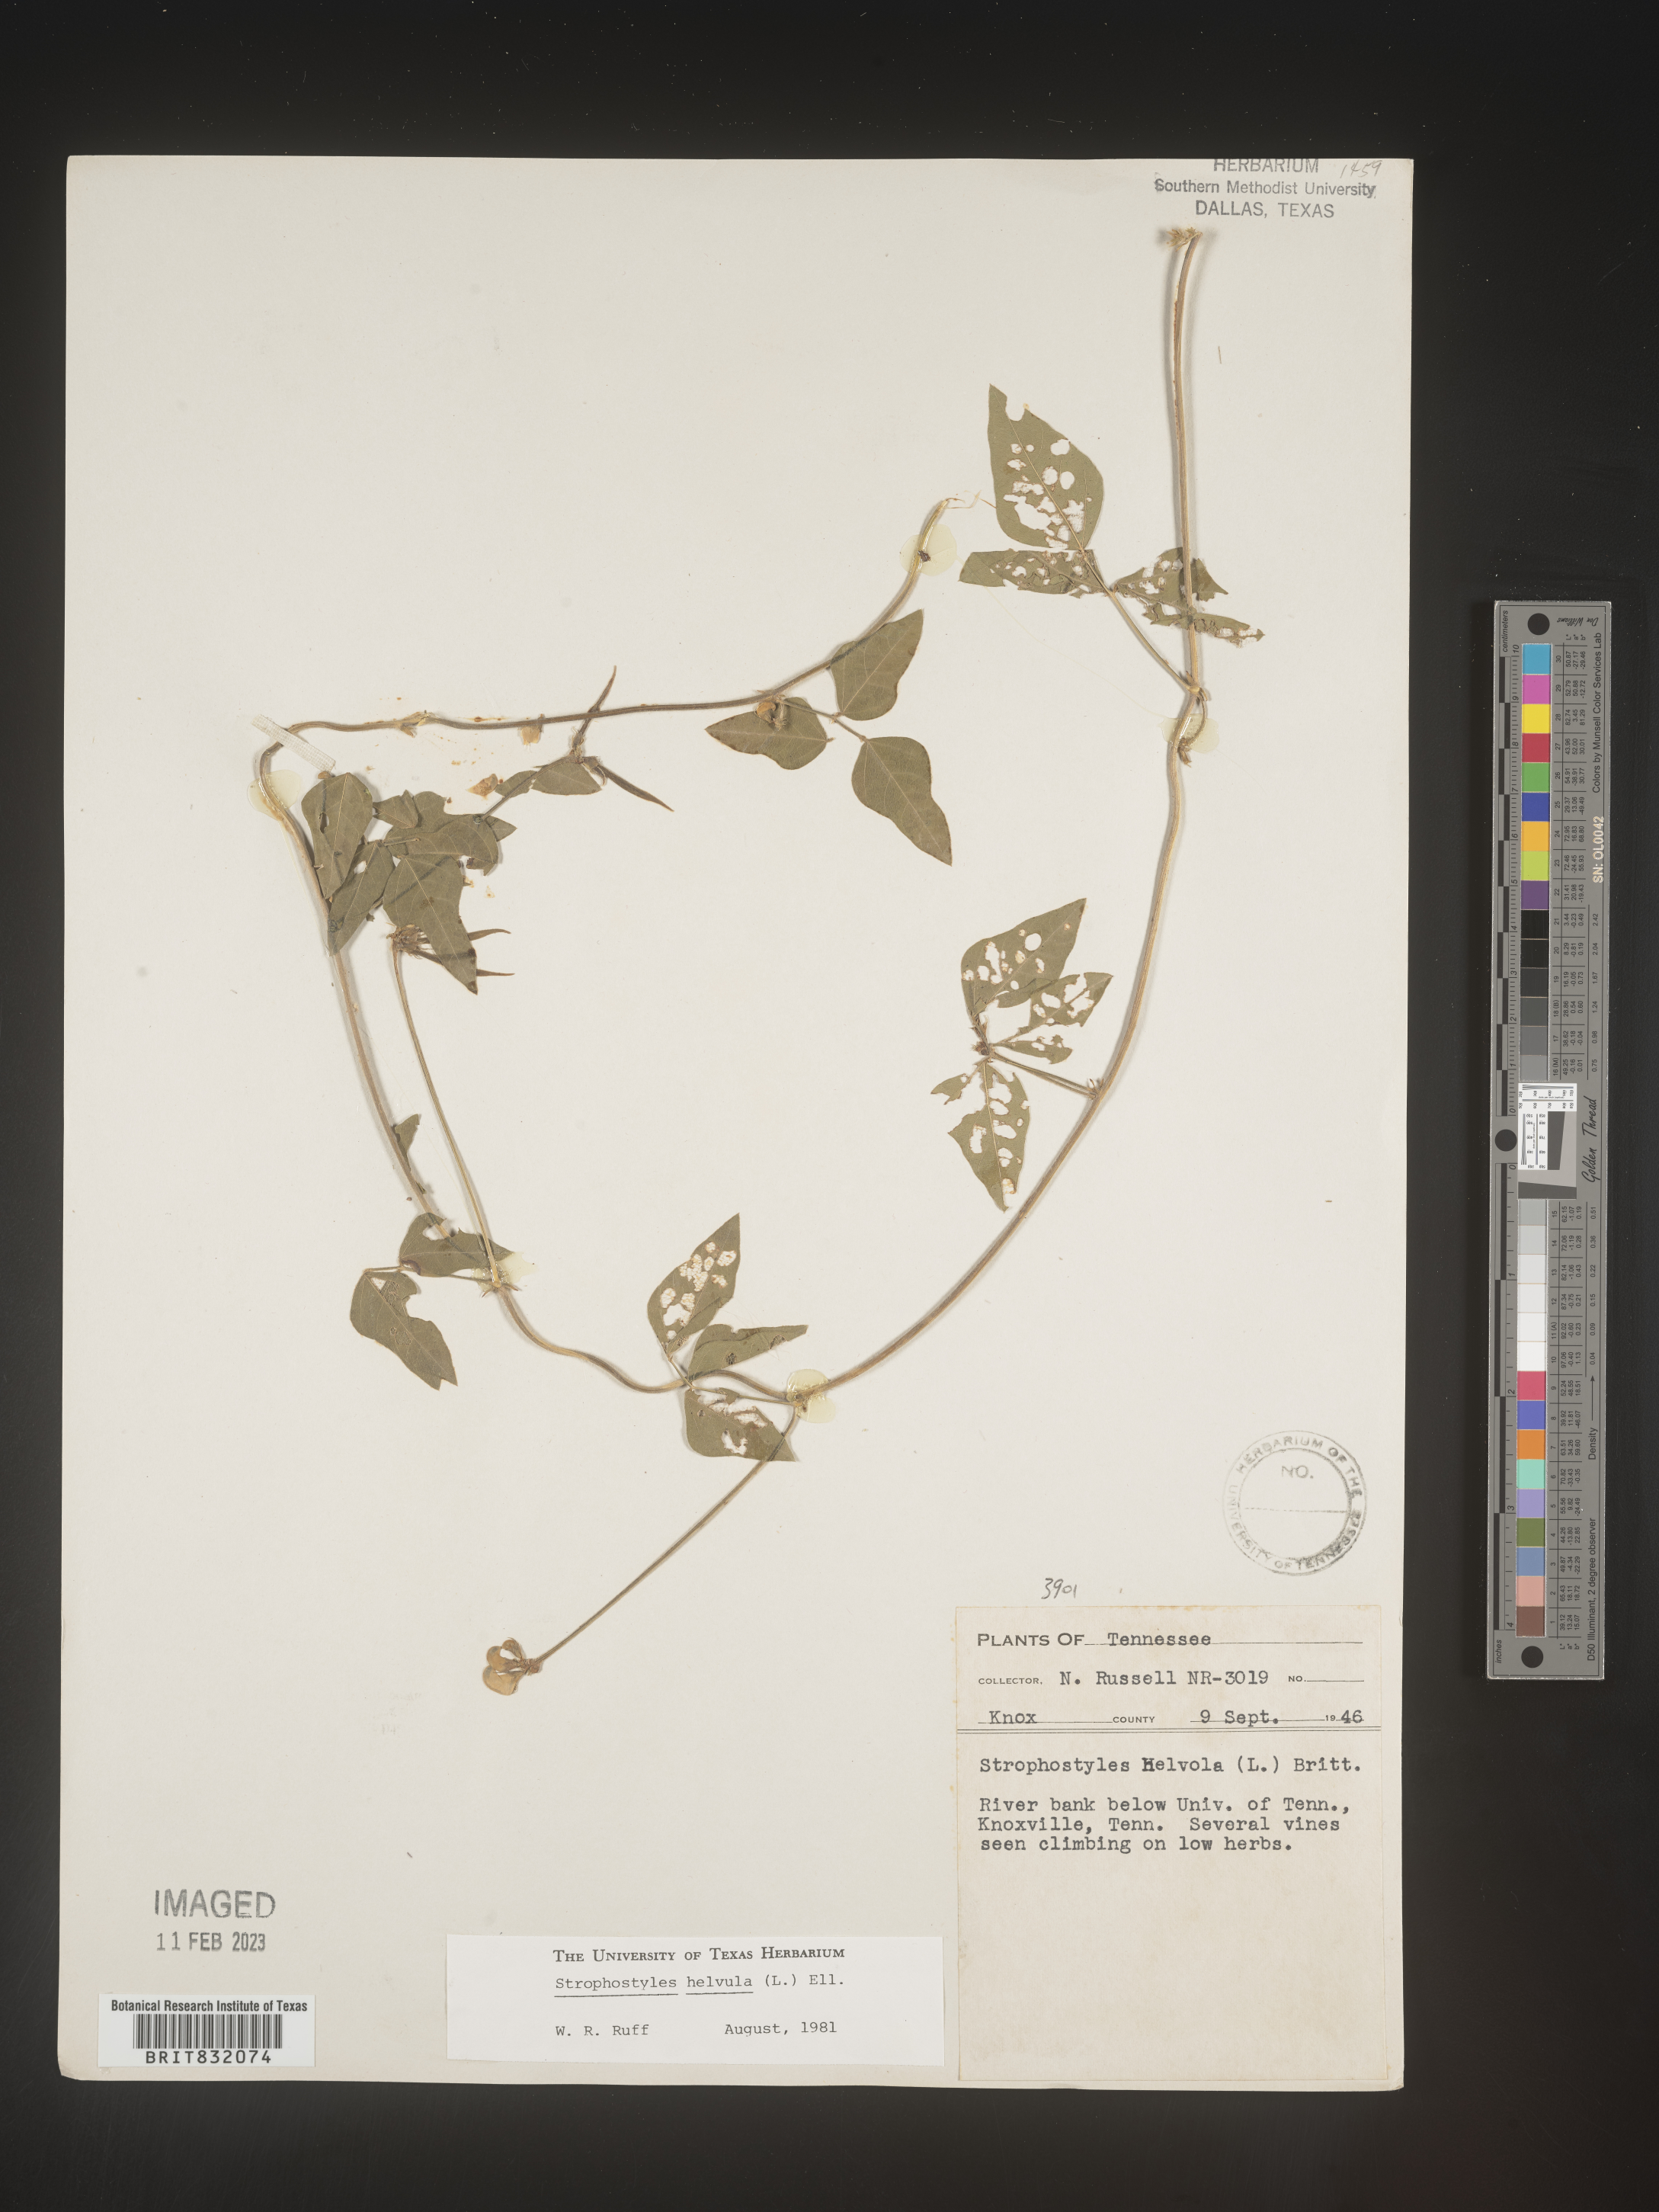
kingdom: Plantae
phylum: Tracheophyta
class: Magnoliopsida
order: Fabales
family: Fabaceae
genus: Strophostyles
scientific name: Strophostyles helvola
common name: Trailing wild bean
